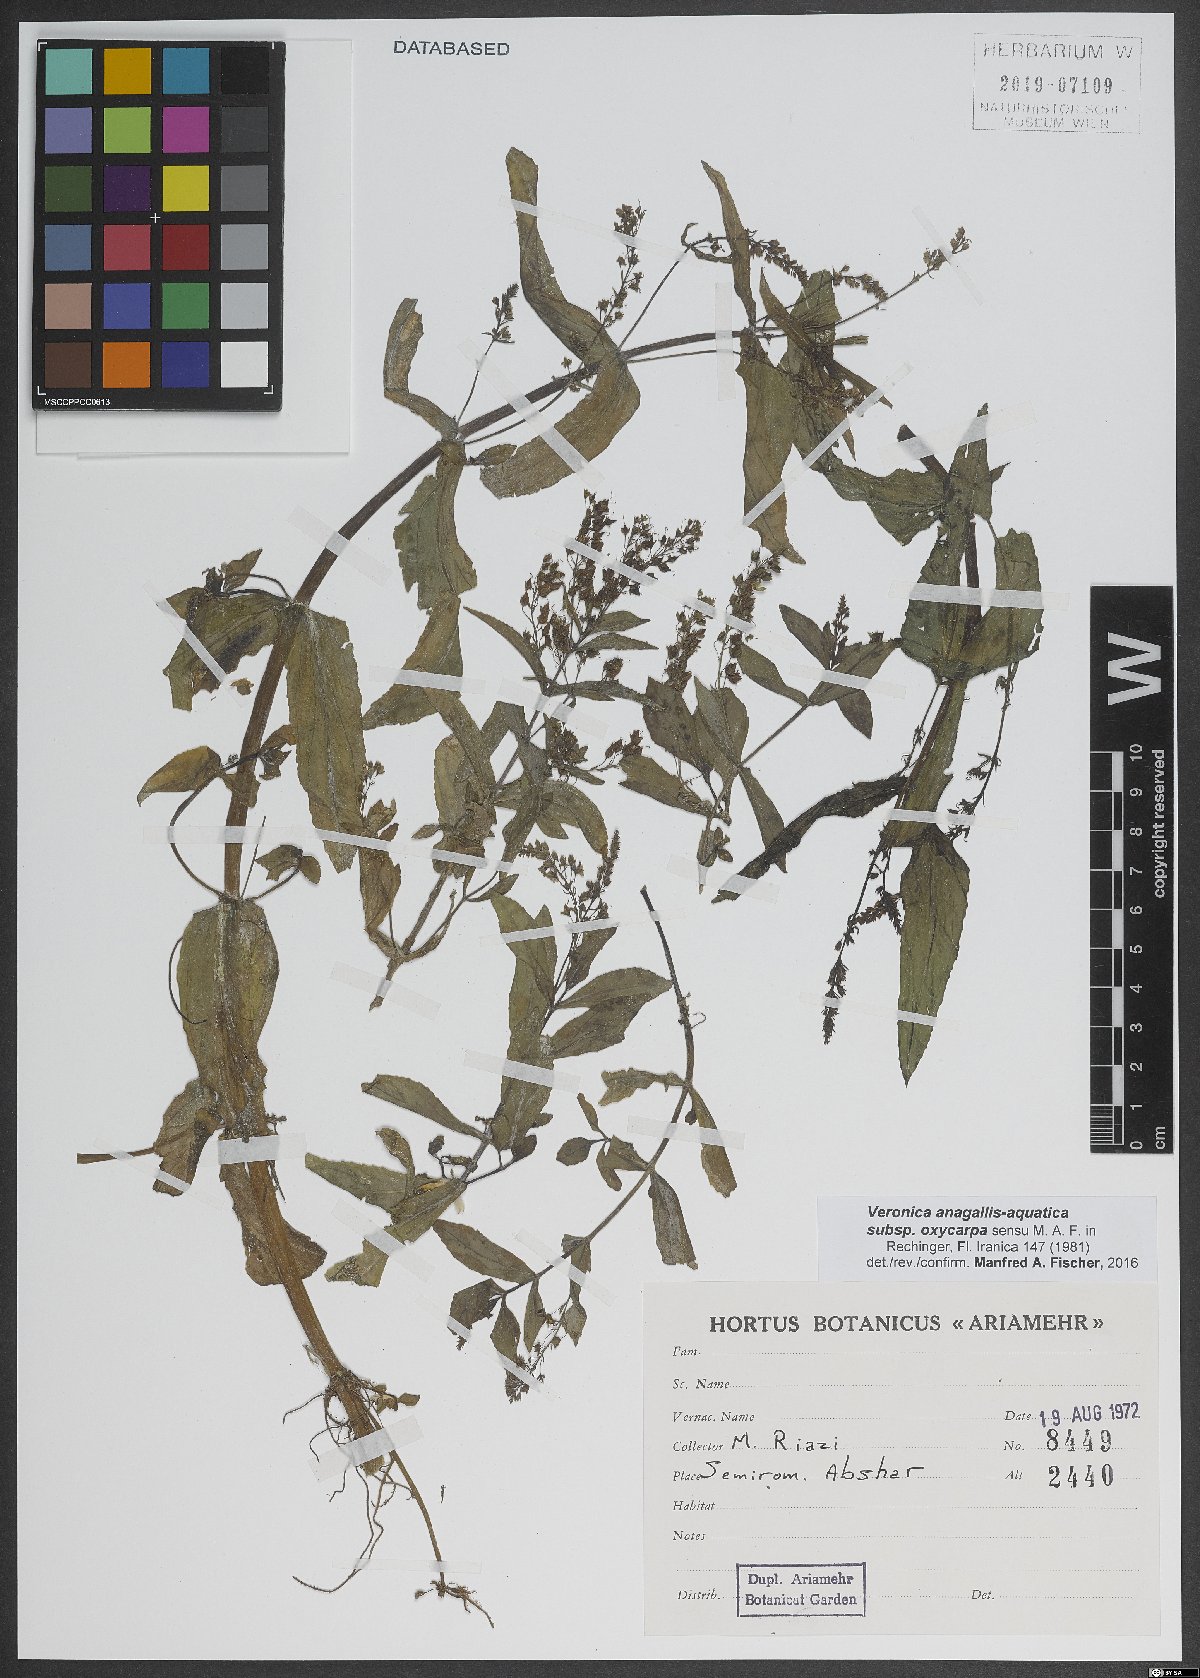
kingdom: Plantae
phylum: Tracheophyta
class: Magnoliopsida
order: Lamiales
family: Plantaginaceae
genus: Veronica
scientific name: Veronica oxycarpa
